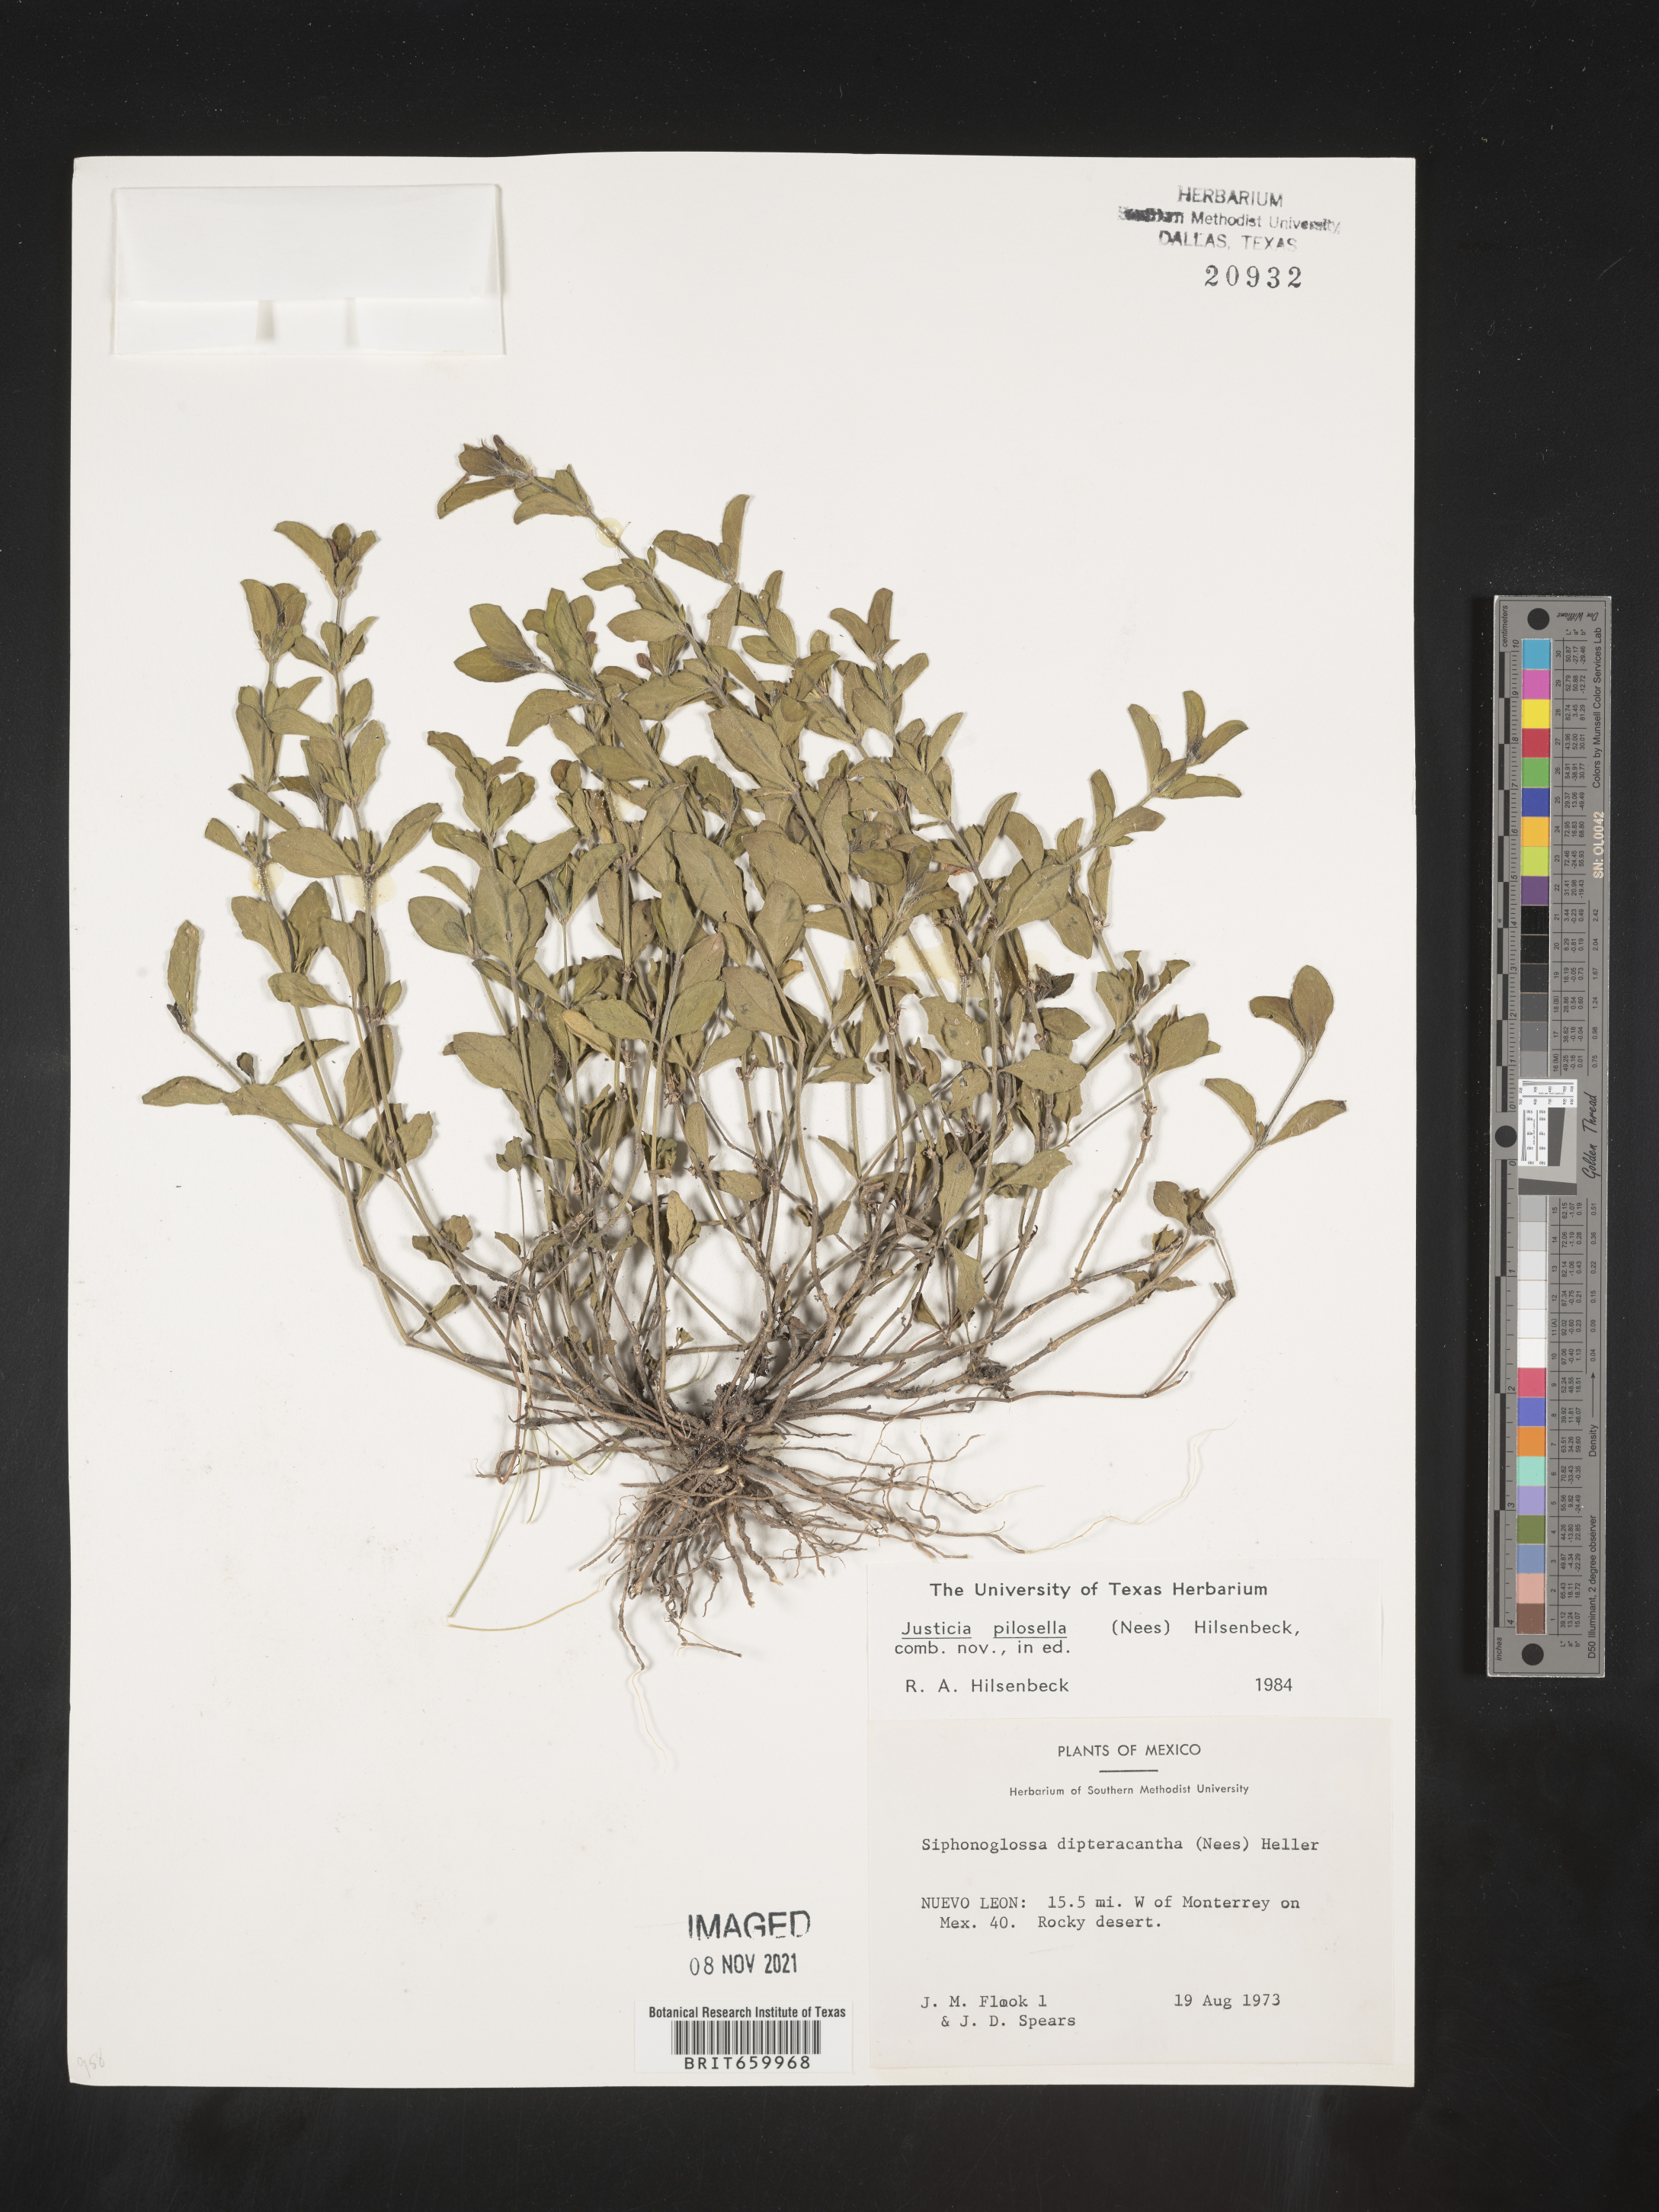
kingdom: Plantae
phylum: Tracheophyta
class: Magnoliopsida
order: Lamiales
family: Acanthaceae
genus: Justicia
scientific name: Justicia
